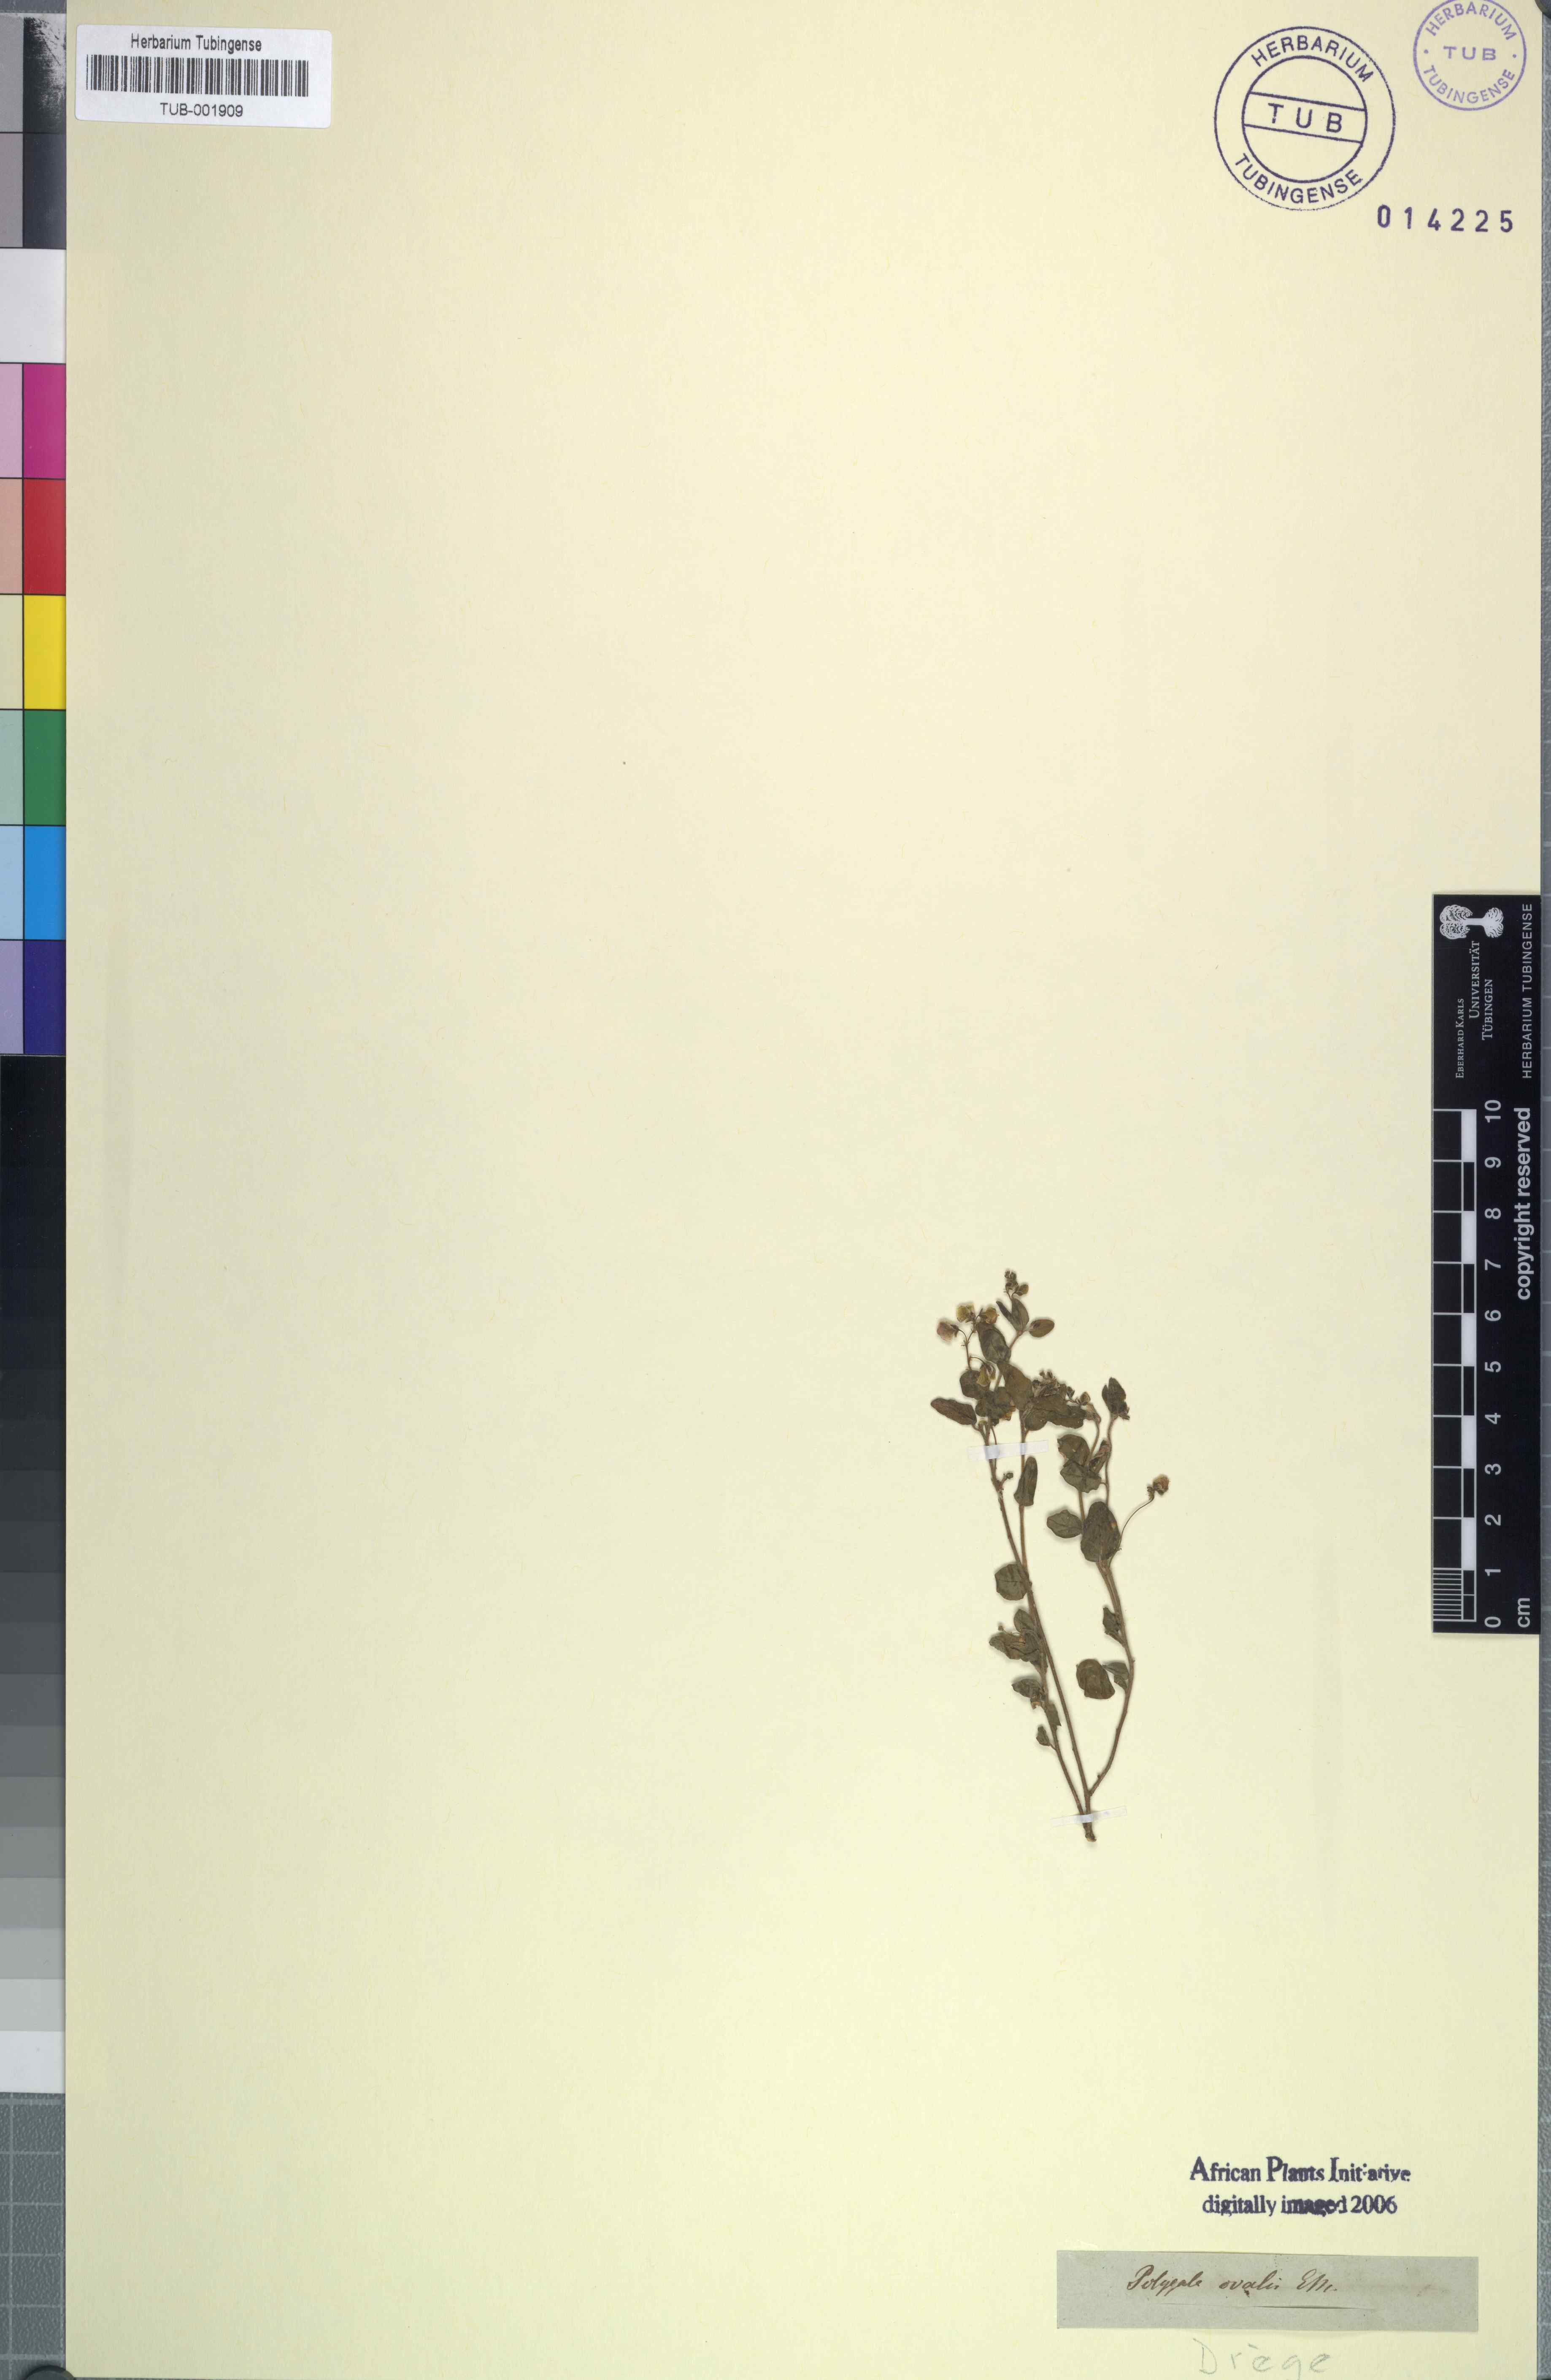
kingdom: Plantae
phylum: Tracheophyta
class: Magnoliopsida
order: Fabales
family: Polygalaceae
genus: Polygala
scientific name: Polygala ohlendorfiana
